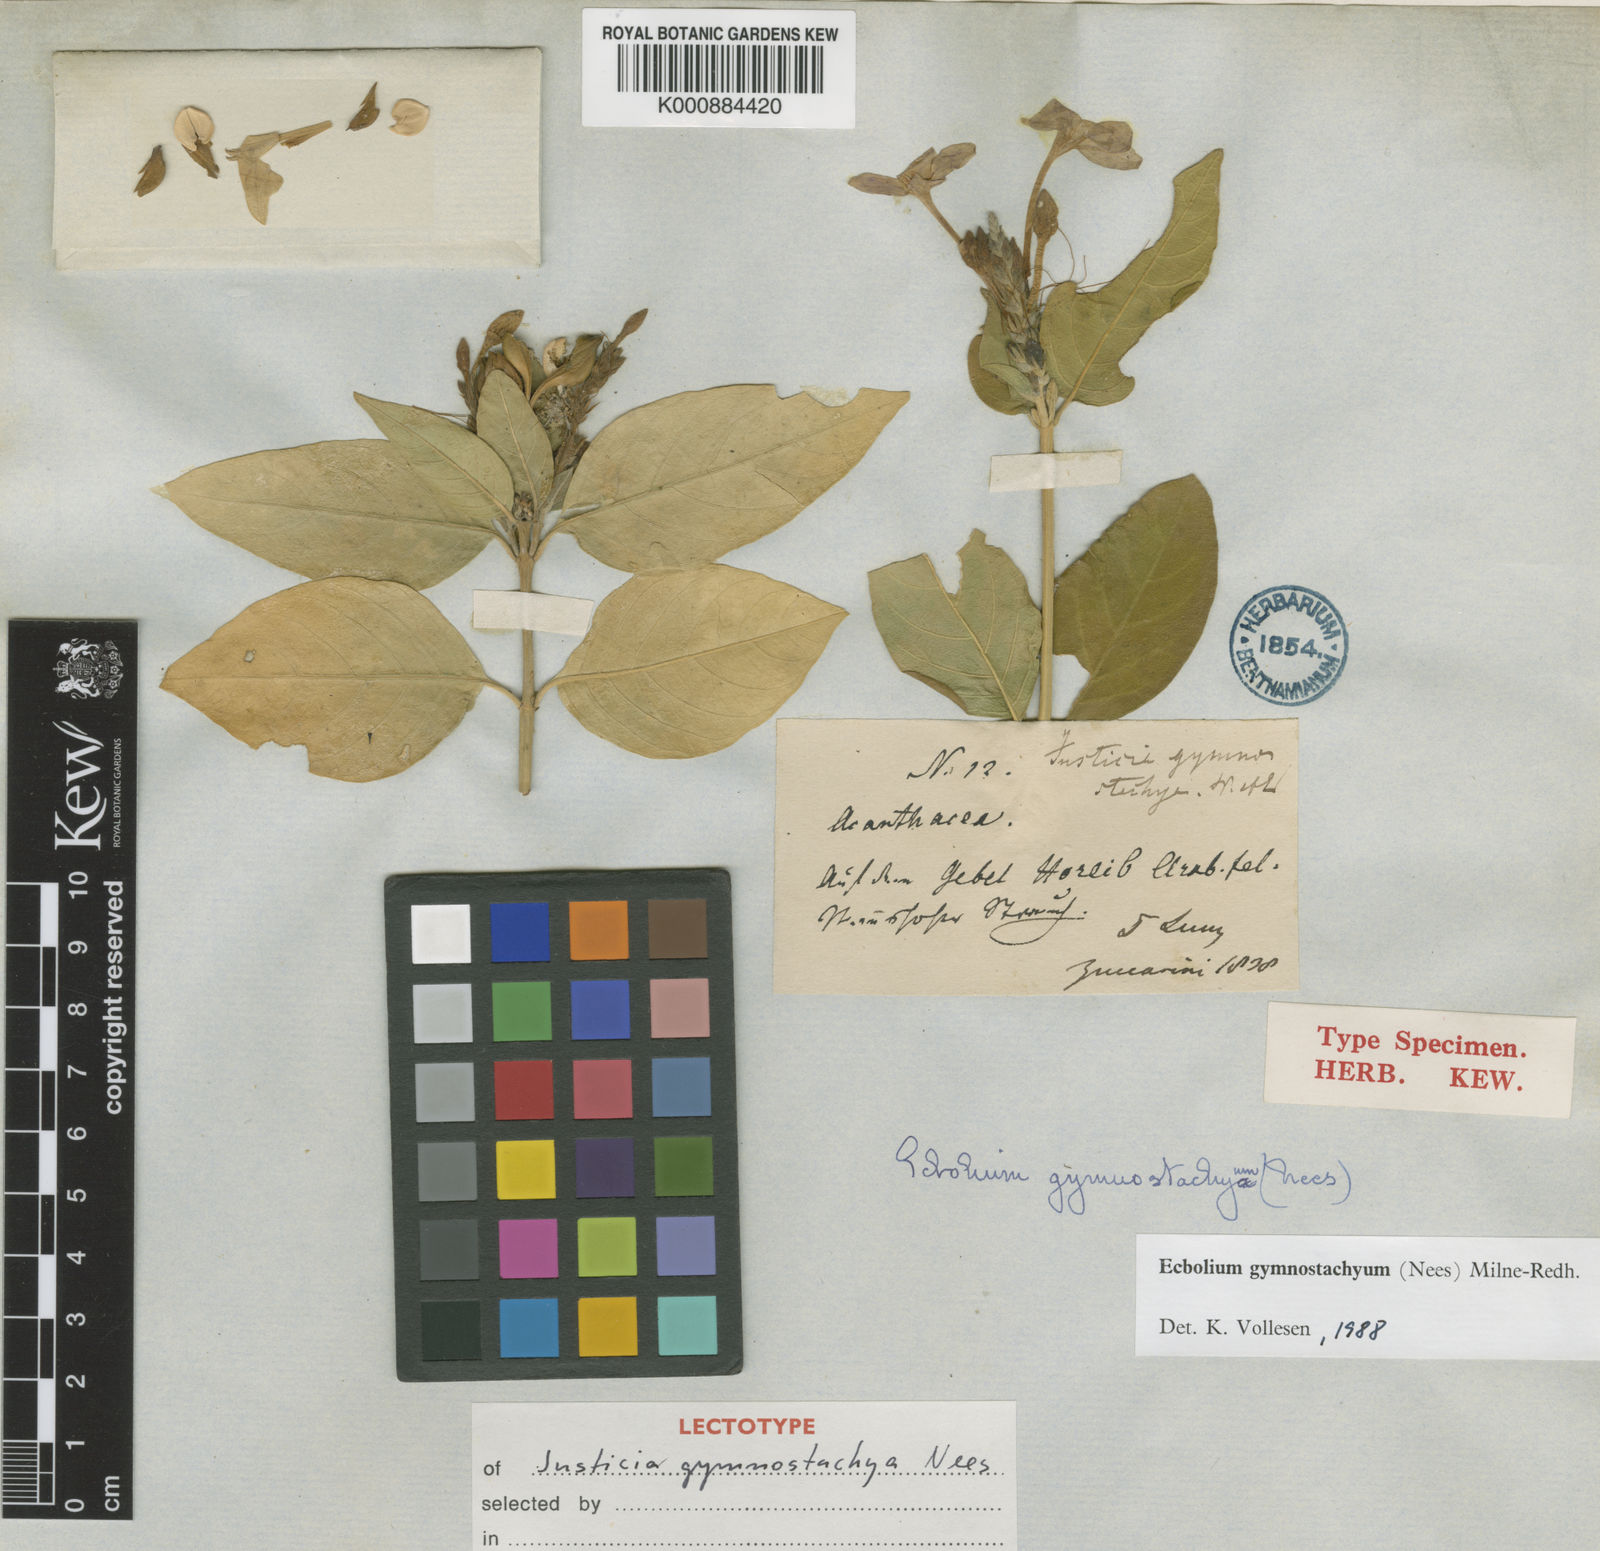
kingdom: Plantae
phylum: Tracheophyta
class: Magnoliopsida
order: Lamiales
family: Acanthaceae
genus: Ecbolium
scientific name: Ecbolium gymnostachyum
